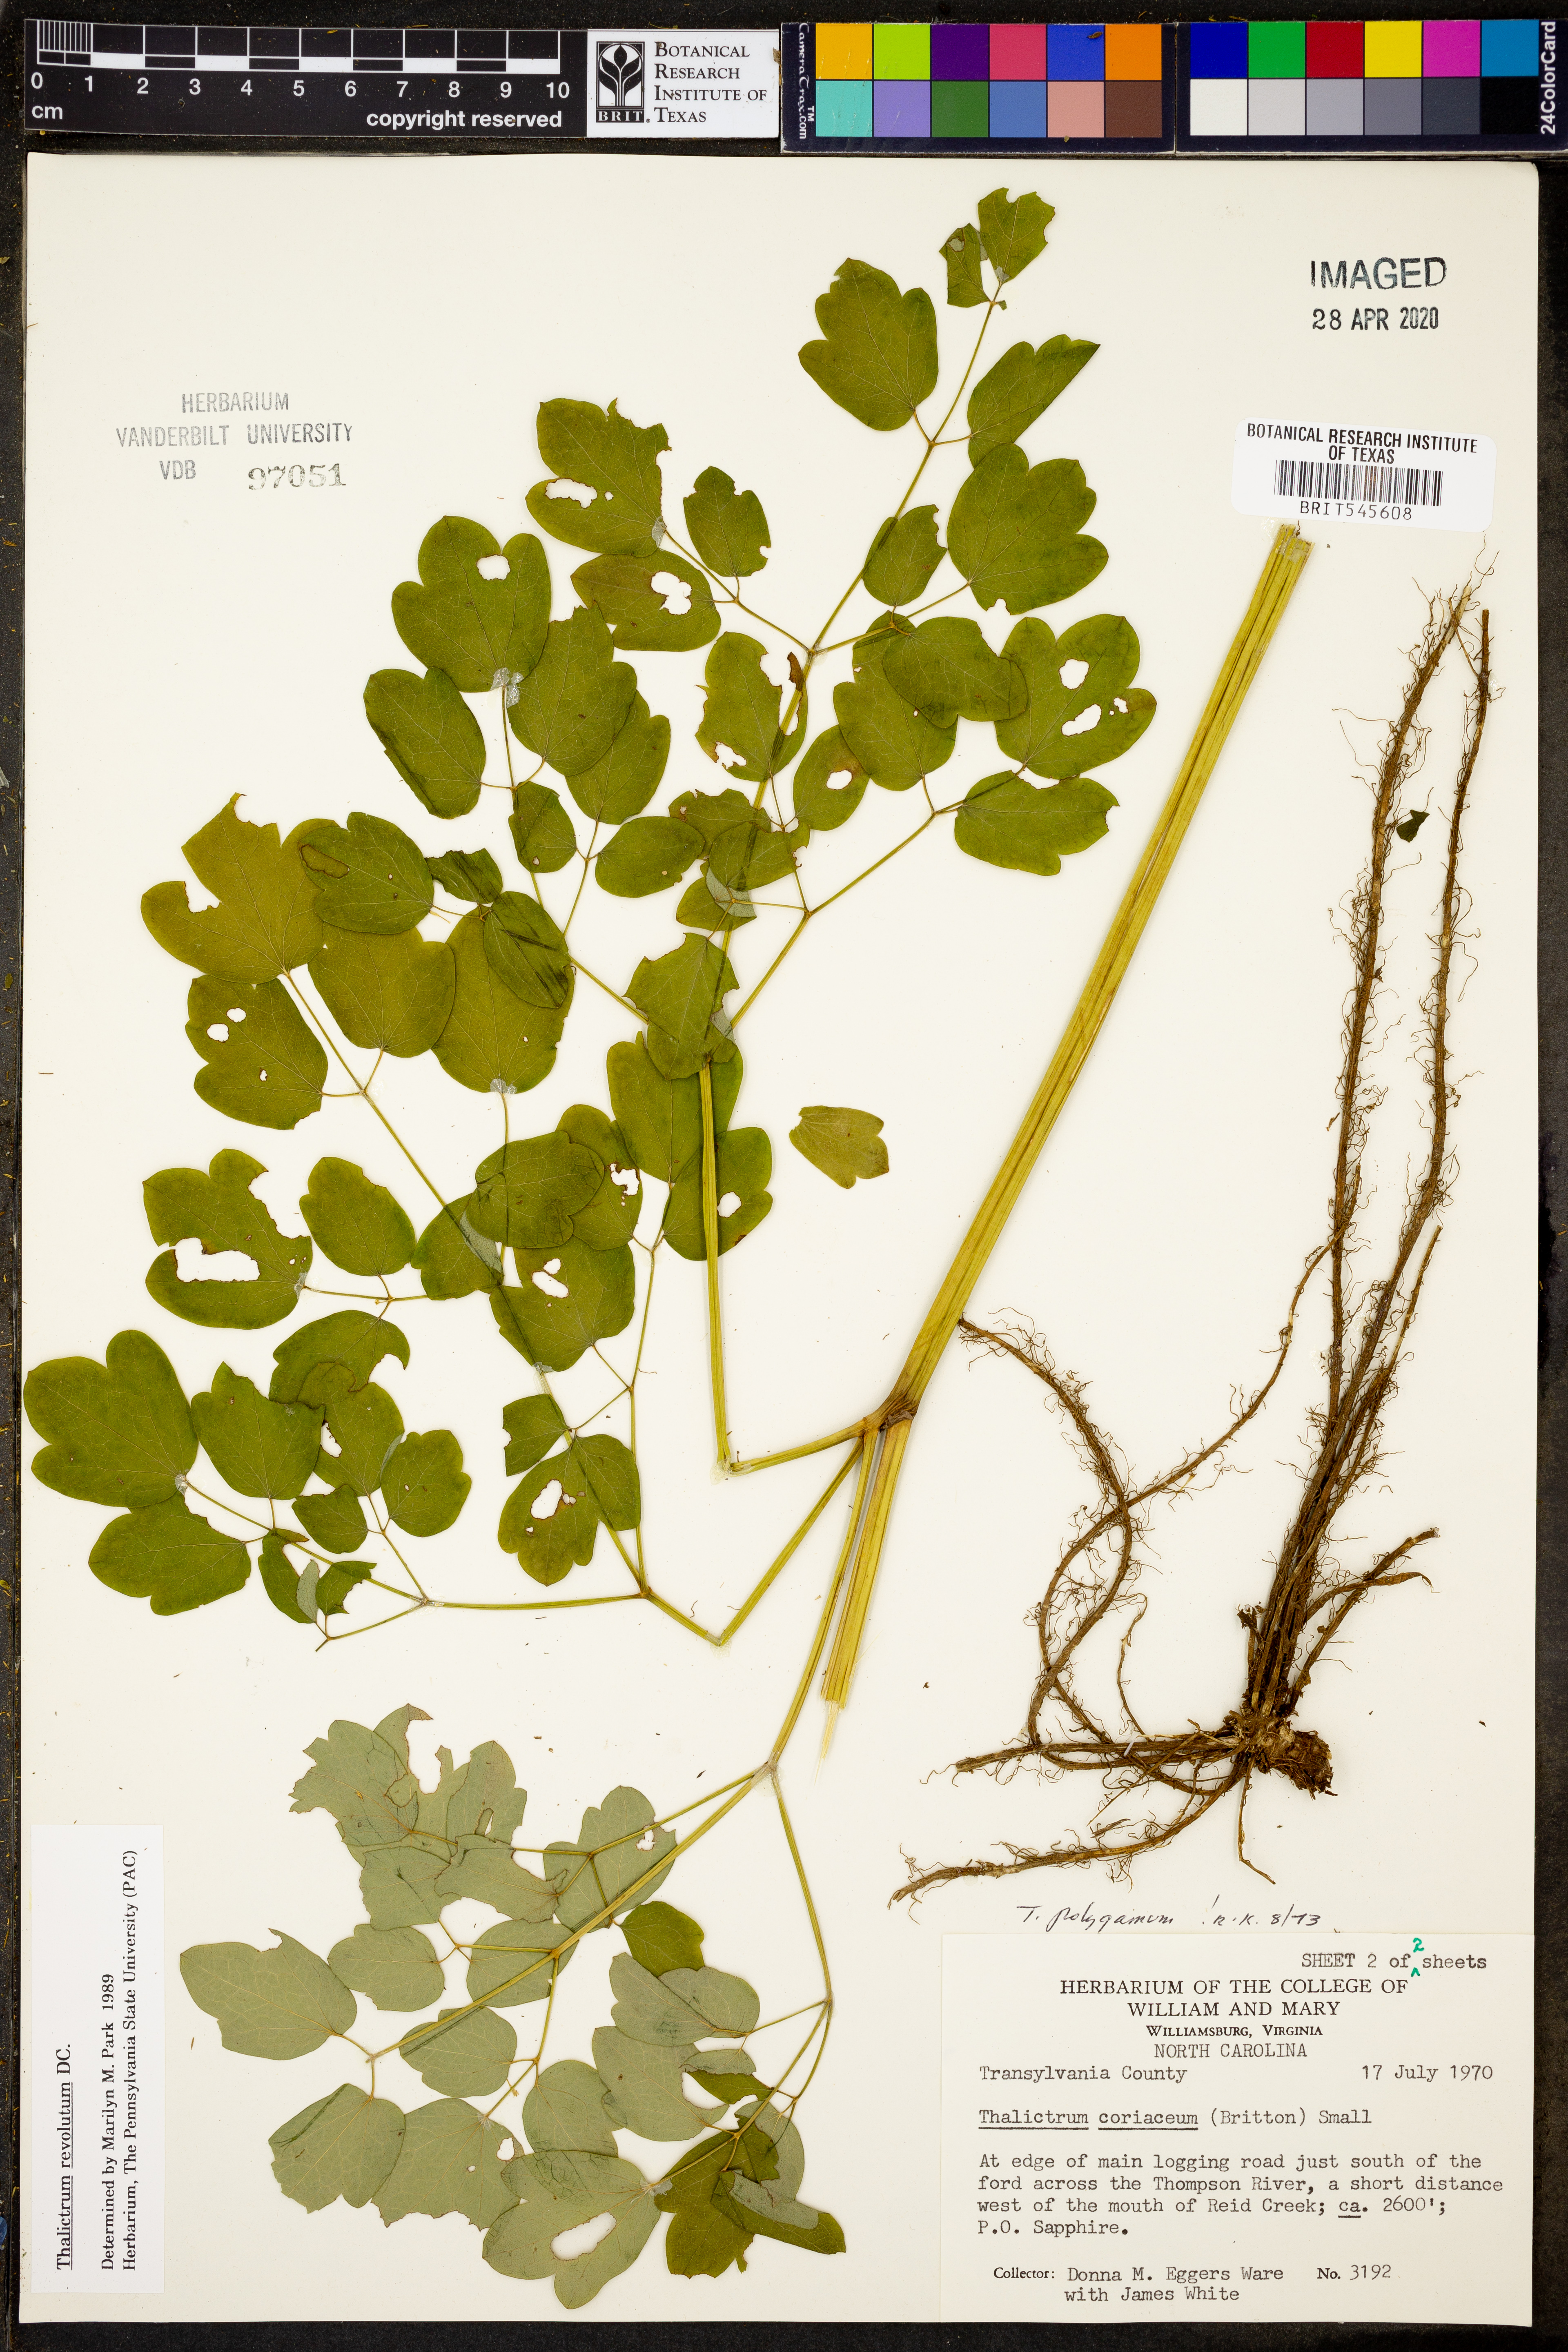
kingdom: Plantae
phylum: Tracheophyta
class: Magnoliopsida
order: Ranunculales
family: Ranunculaceae
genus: Thalictrum
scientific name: Thalictrum revolutum
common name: Waxy meadow-rue
